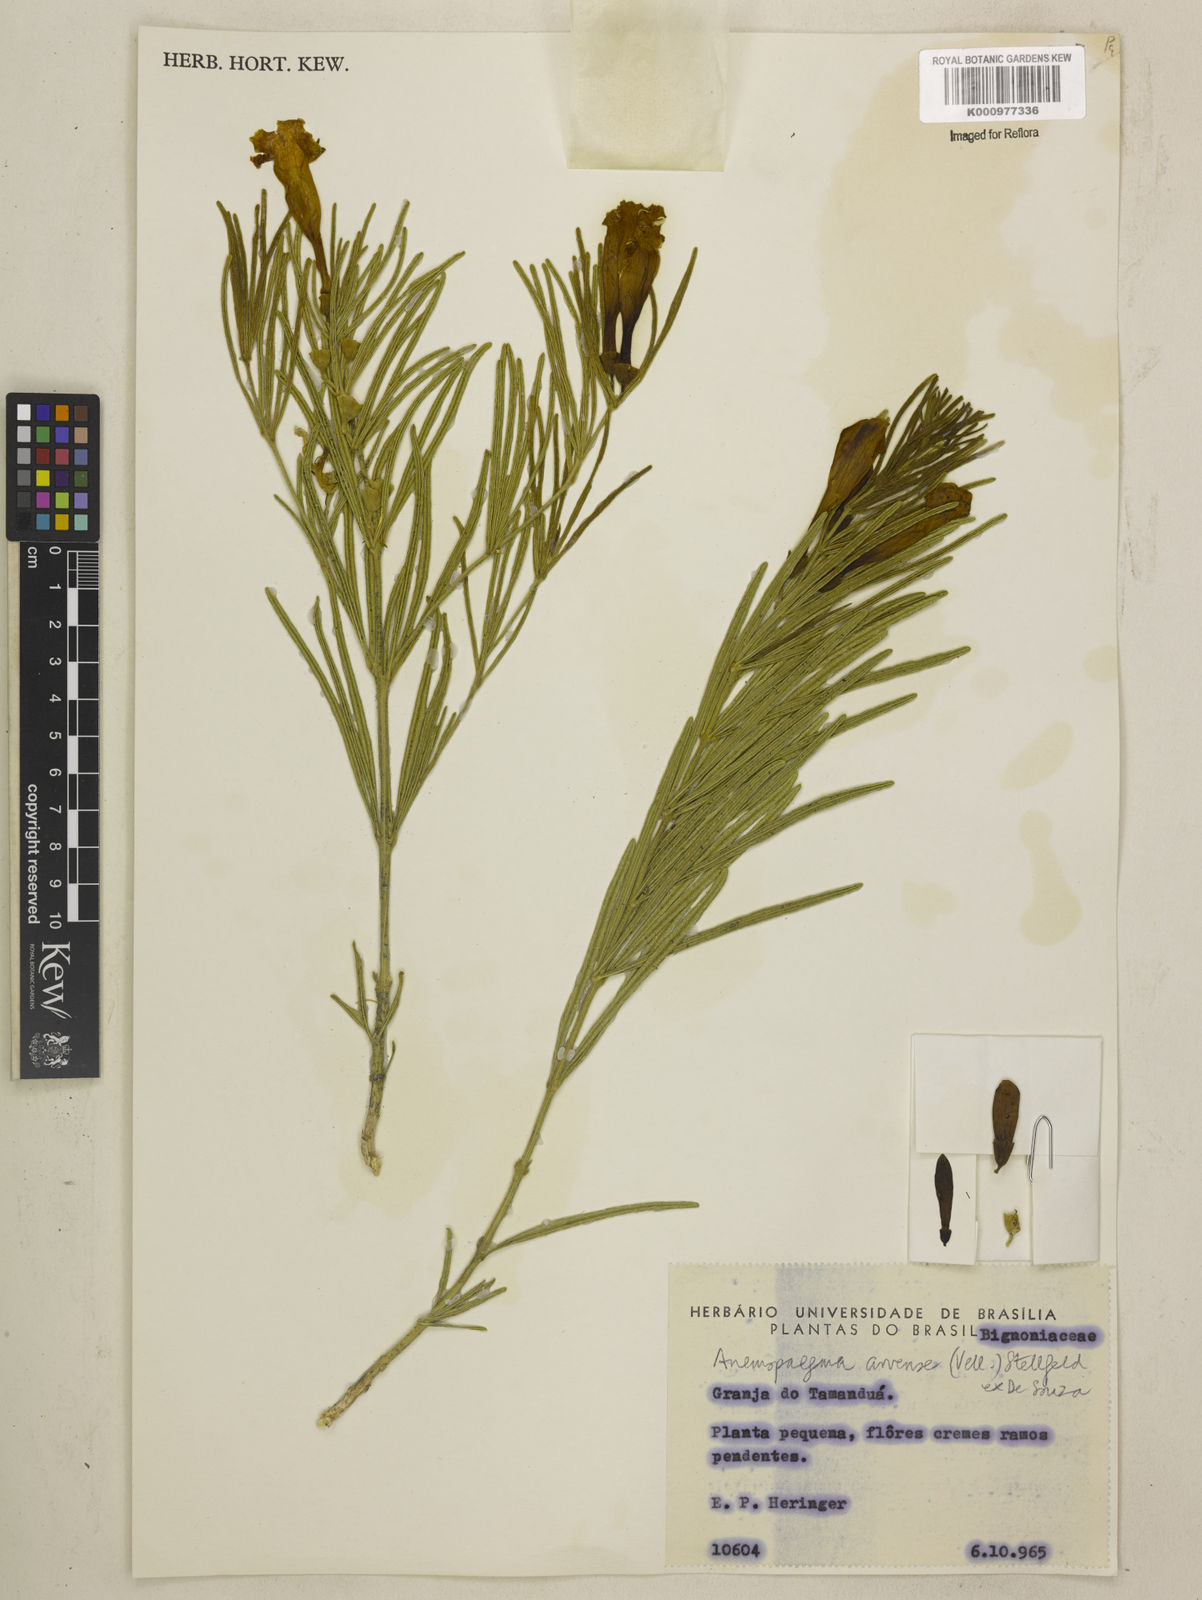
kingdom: Plantae
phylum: Tracheophyta
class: Magnoliopsida
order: Lamiales
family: Bignoniaceae
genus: Anemopaegma
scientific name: Anemopaegma arvense
